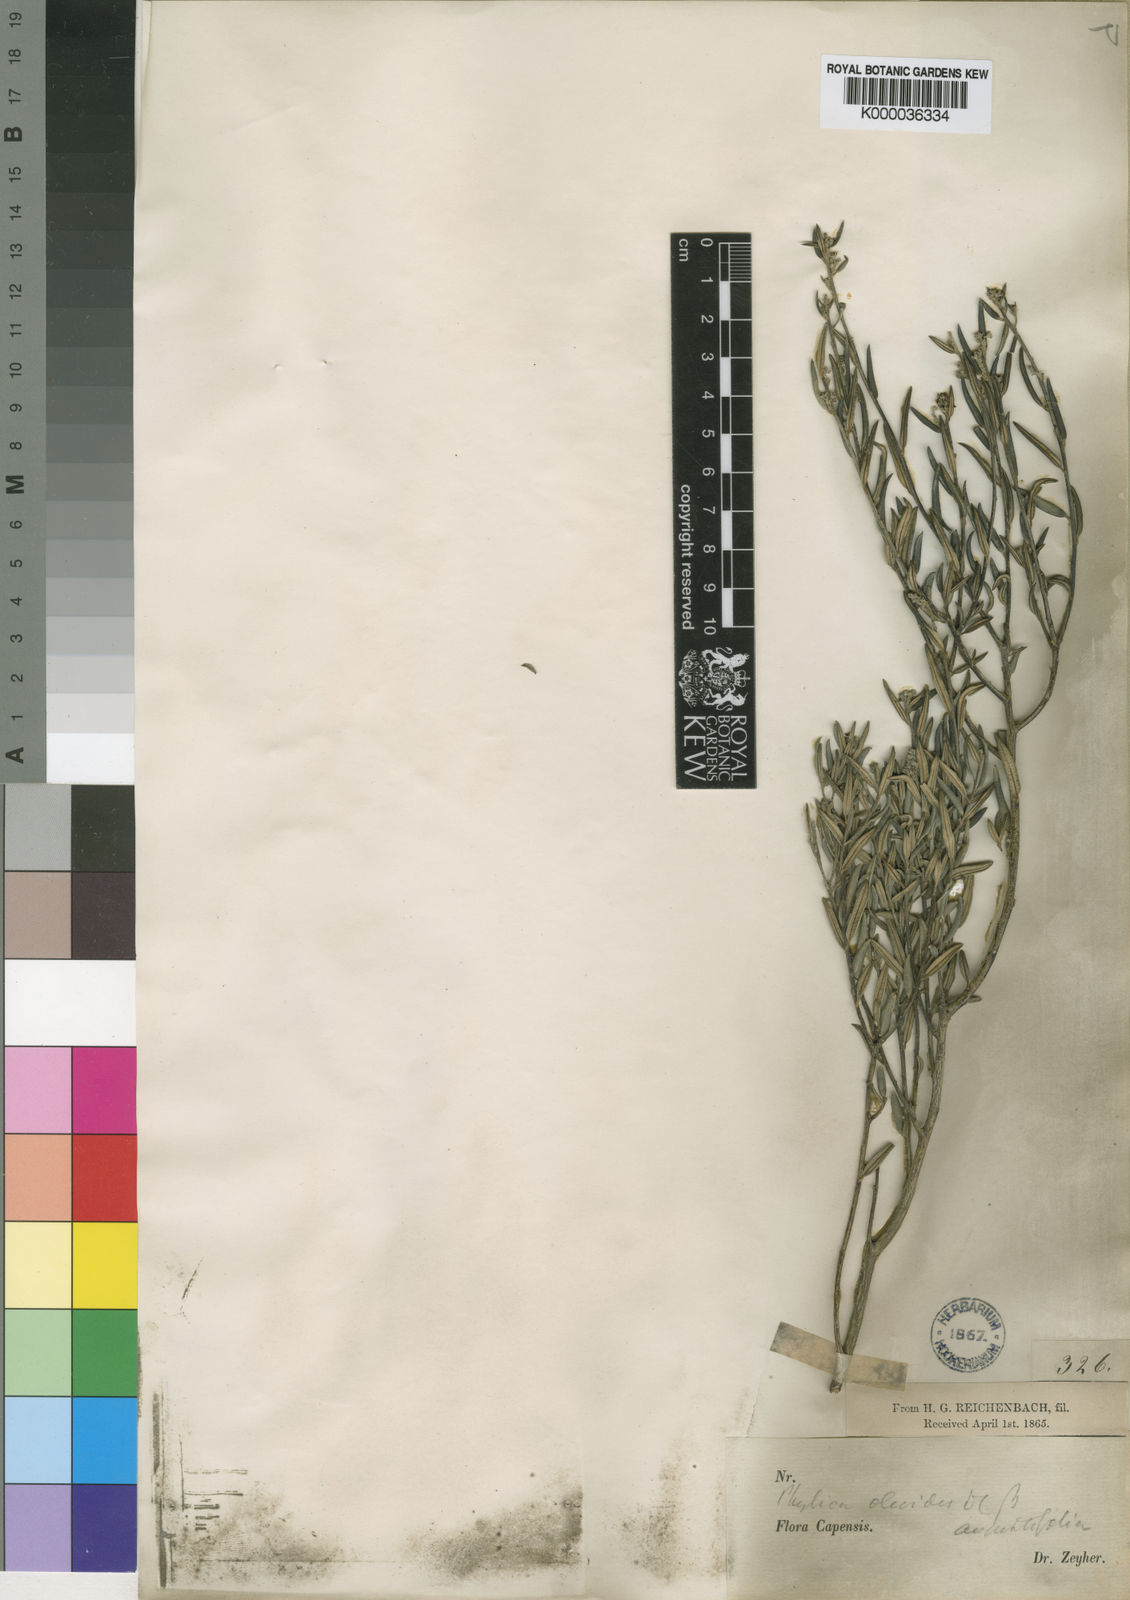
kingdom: Plantae
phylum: Tracheophyta
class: Magnoliopsida
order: Rosales
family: Rhamnaceae
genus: Phylica
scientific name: Phylica oleifolia
